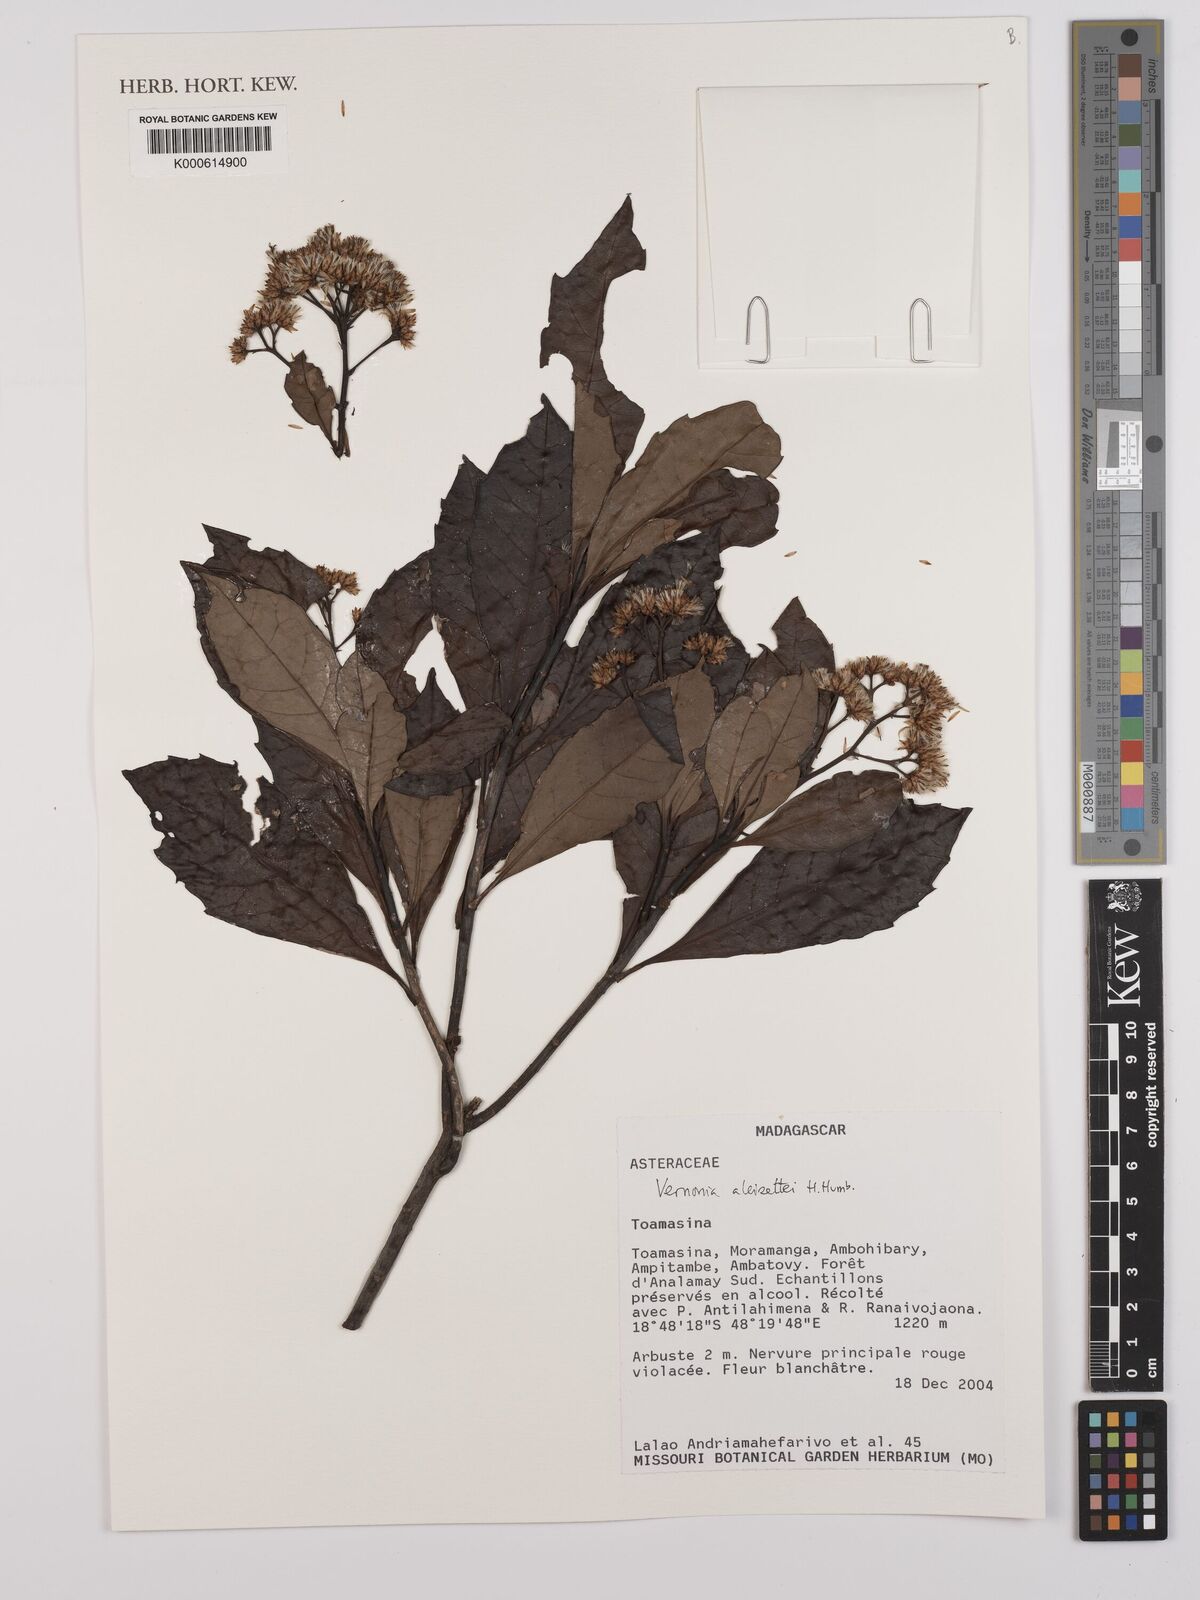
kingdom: Plantae
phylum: Tracheophyta
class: Magnoliopsida
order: Asterales
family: Asteraceae
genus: Vernonia
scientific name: Vernonia alleizettei
